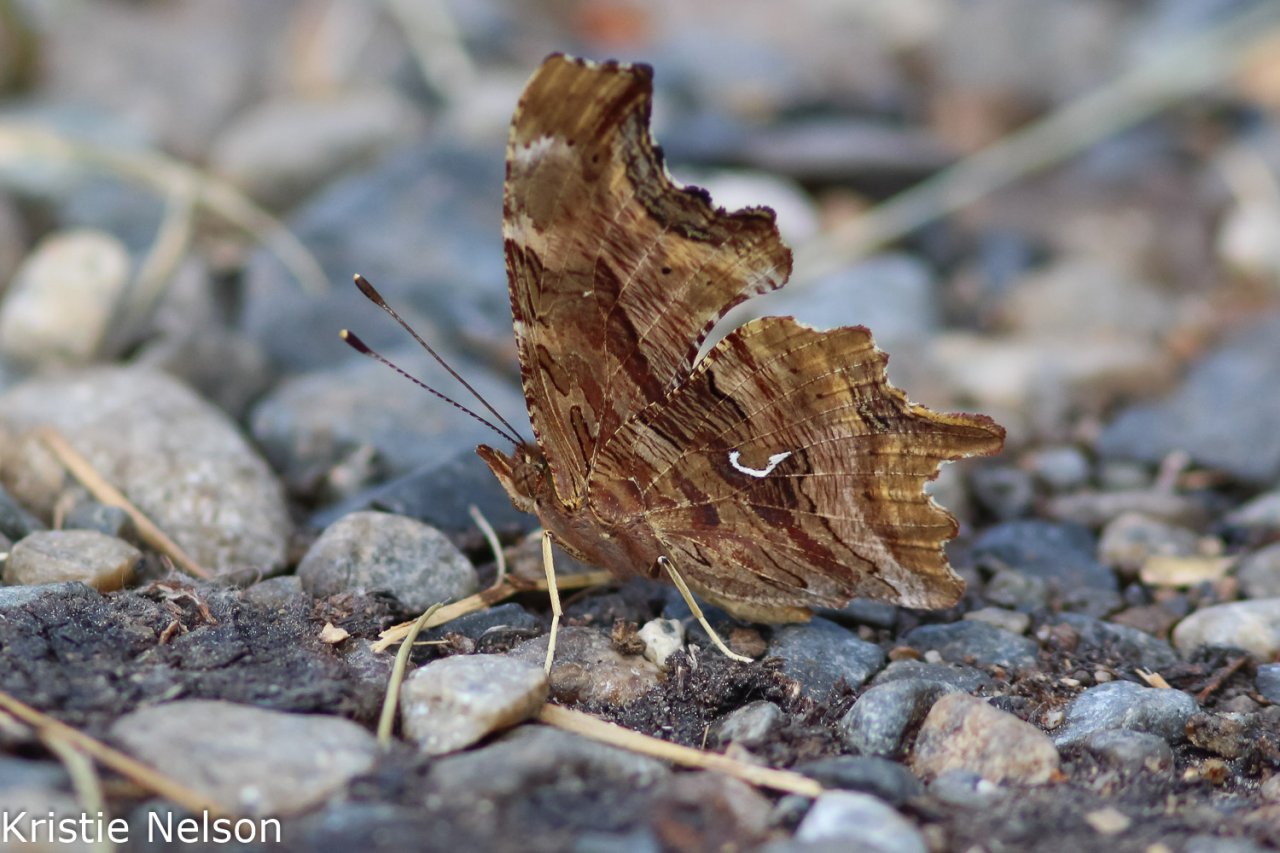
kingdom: Animalia
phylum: Arthropoda
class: Insecta
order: Lepidoptera
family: Nymphalidae
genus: Polygonia
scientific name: Polygonia satyrus
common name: Satyr Comma
